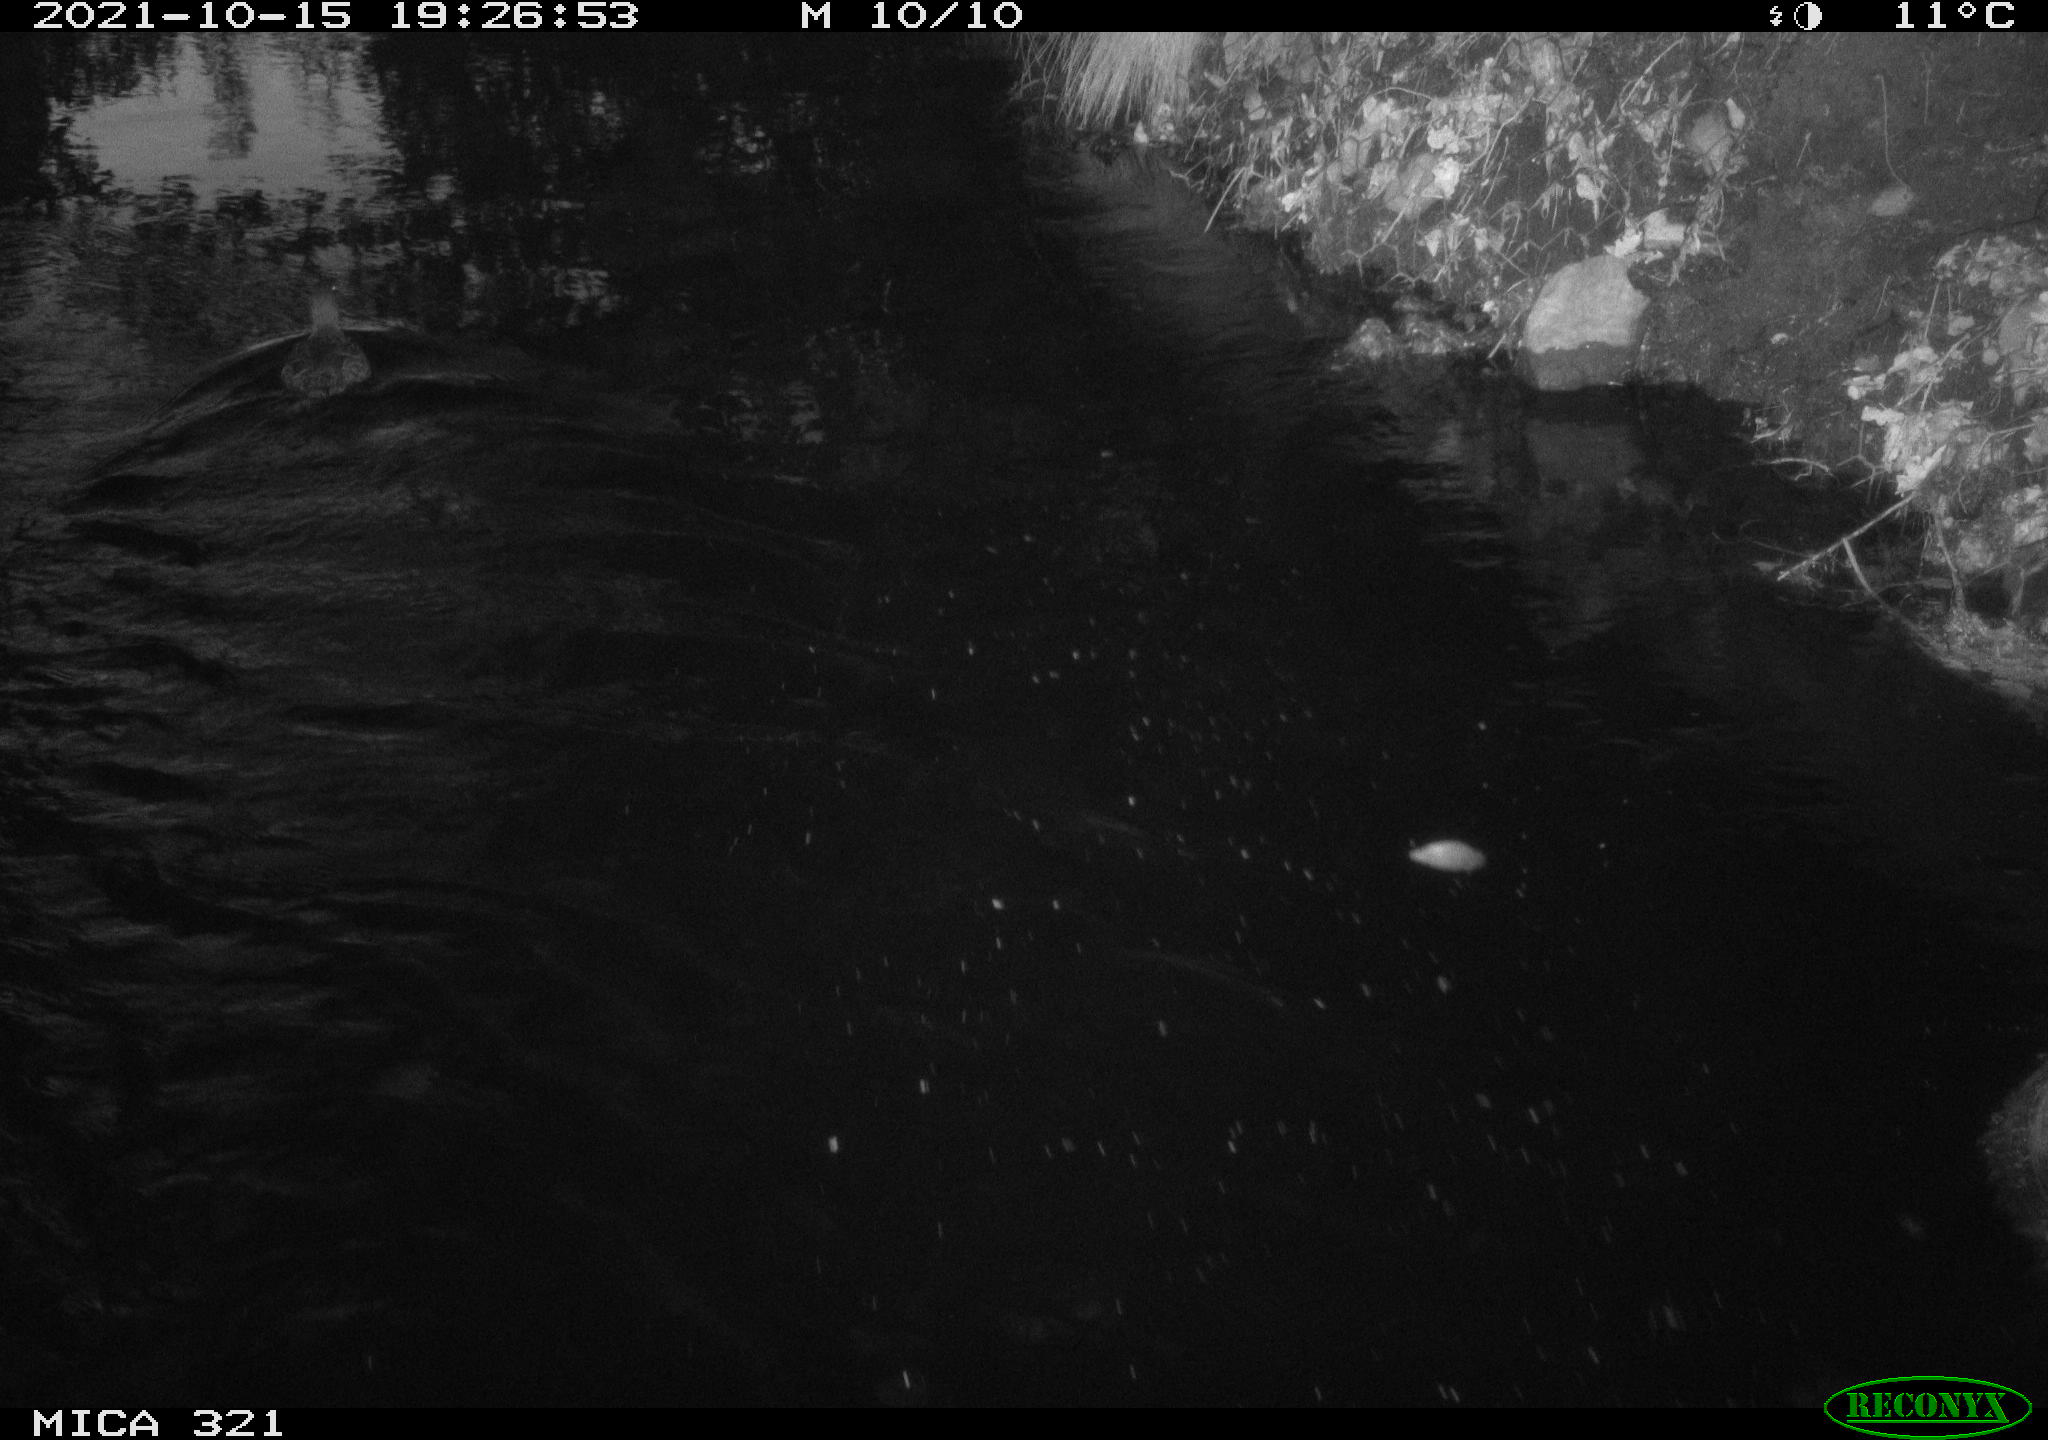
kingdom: Animalia
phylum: Chordata
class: Aves
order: Anseriformes
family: Anatidae
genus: Anas
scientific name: Anas platyrhynchos
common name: Mallard
